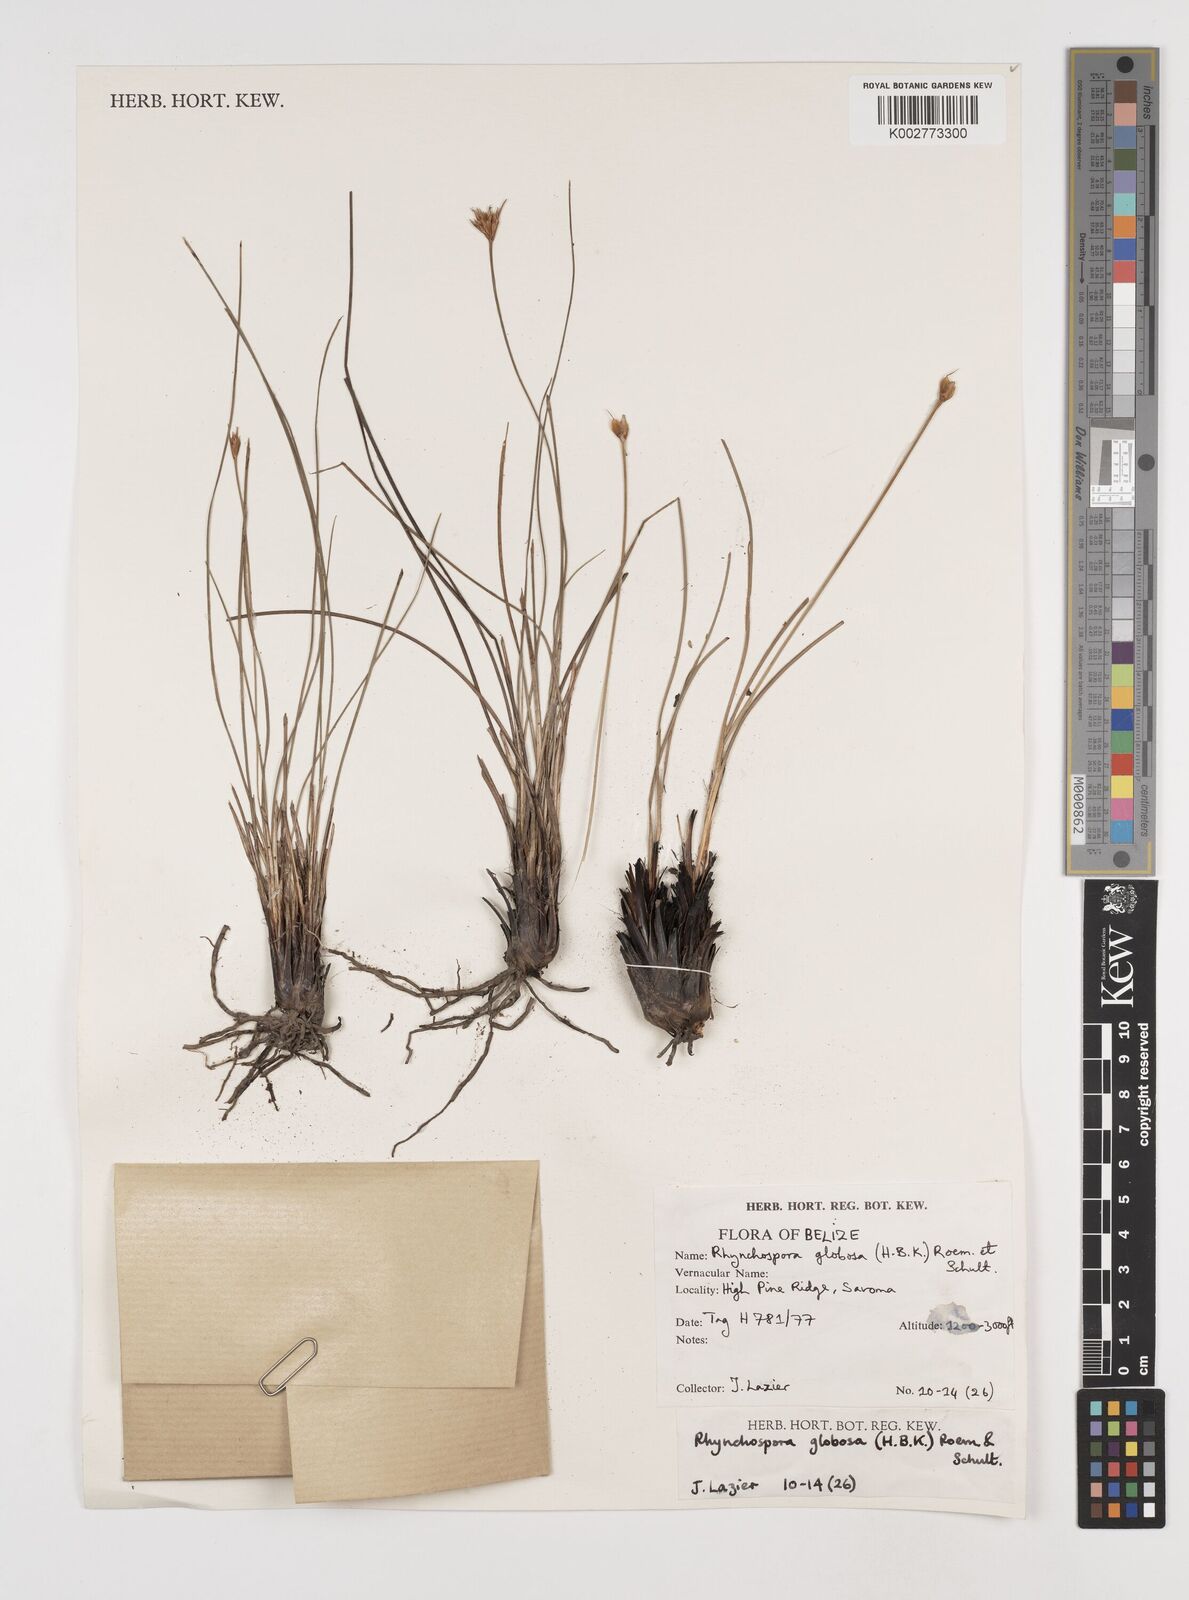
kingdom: Plantae
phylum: Tracheophyta
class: Liliopsida
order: Poales
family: Cyperaceae
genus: Rhynchospora
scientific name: Rhynchospora globosa
